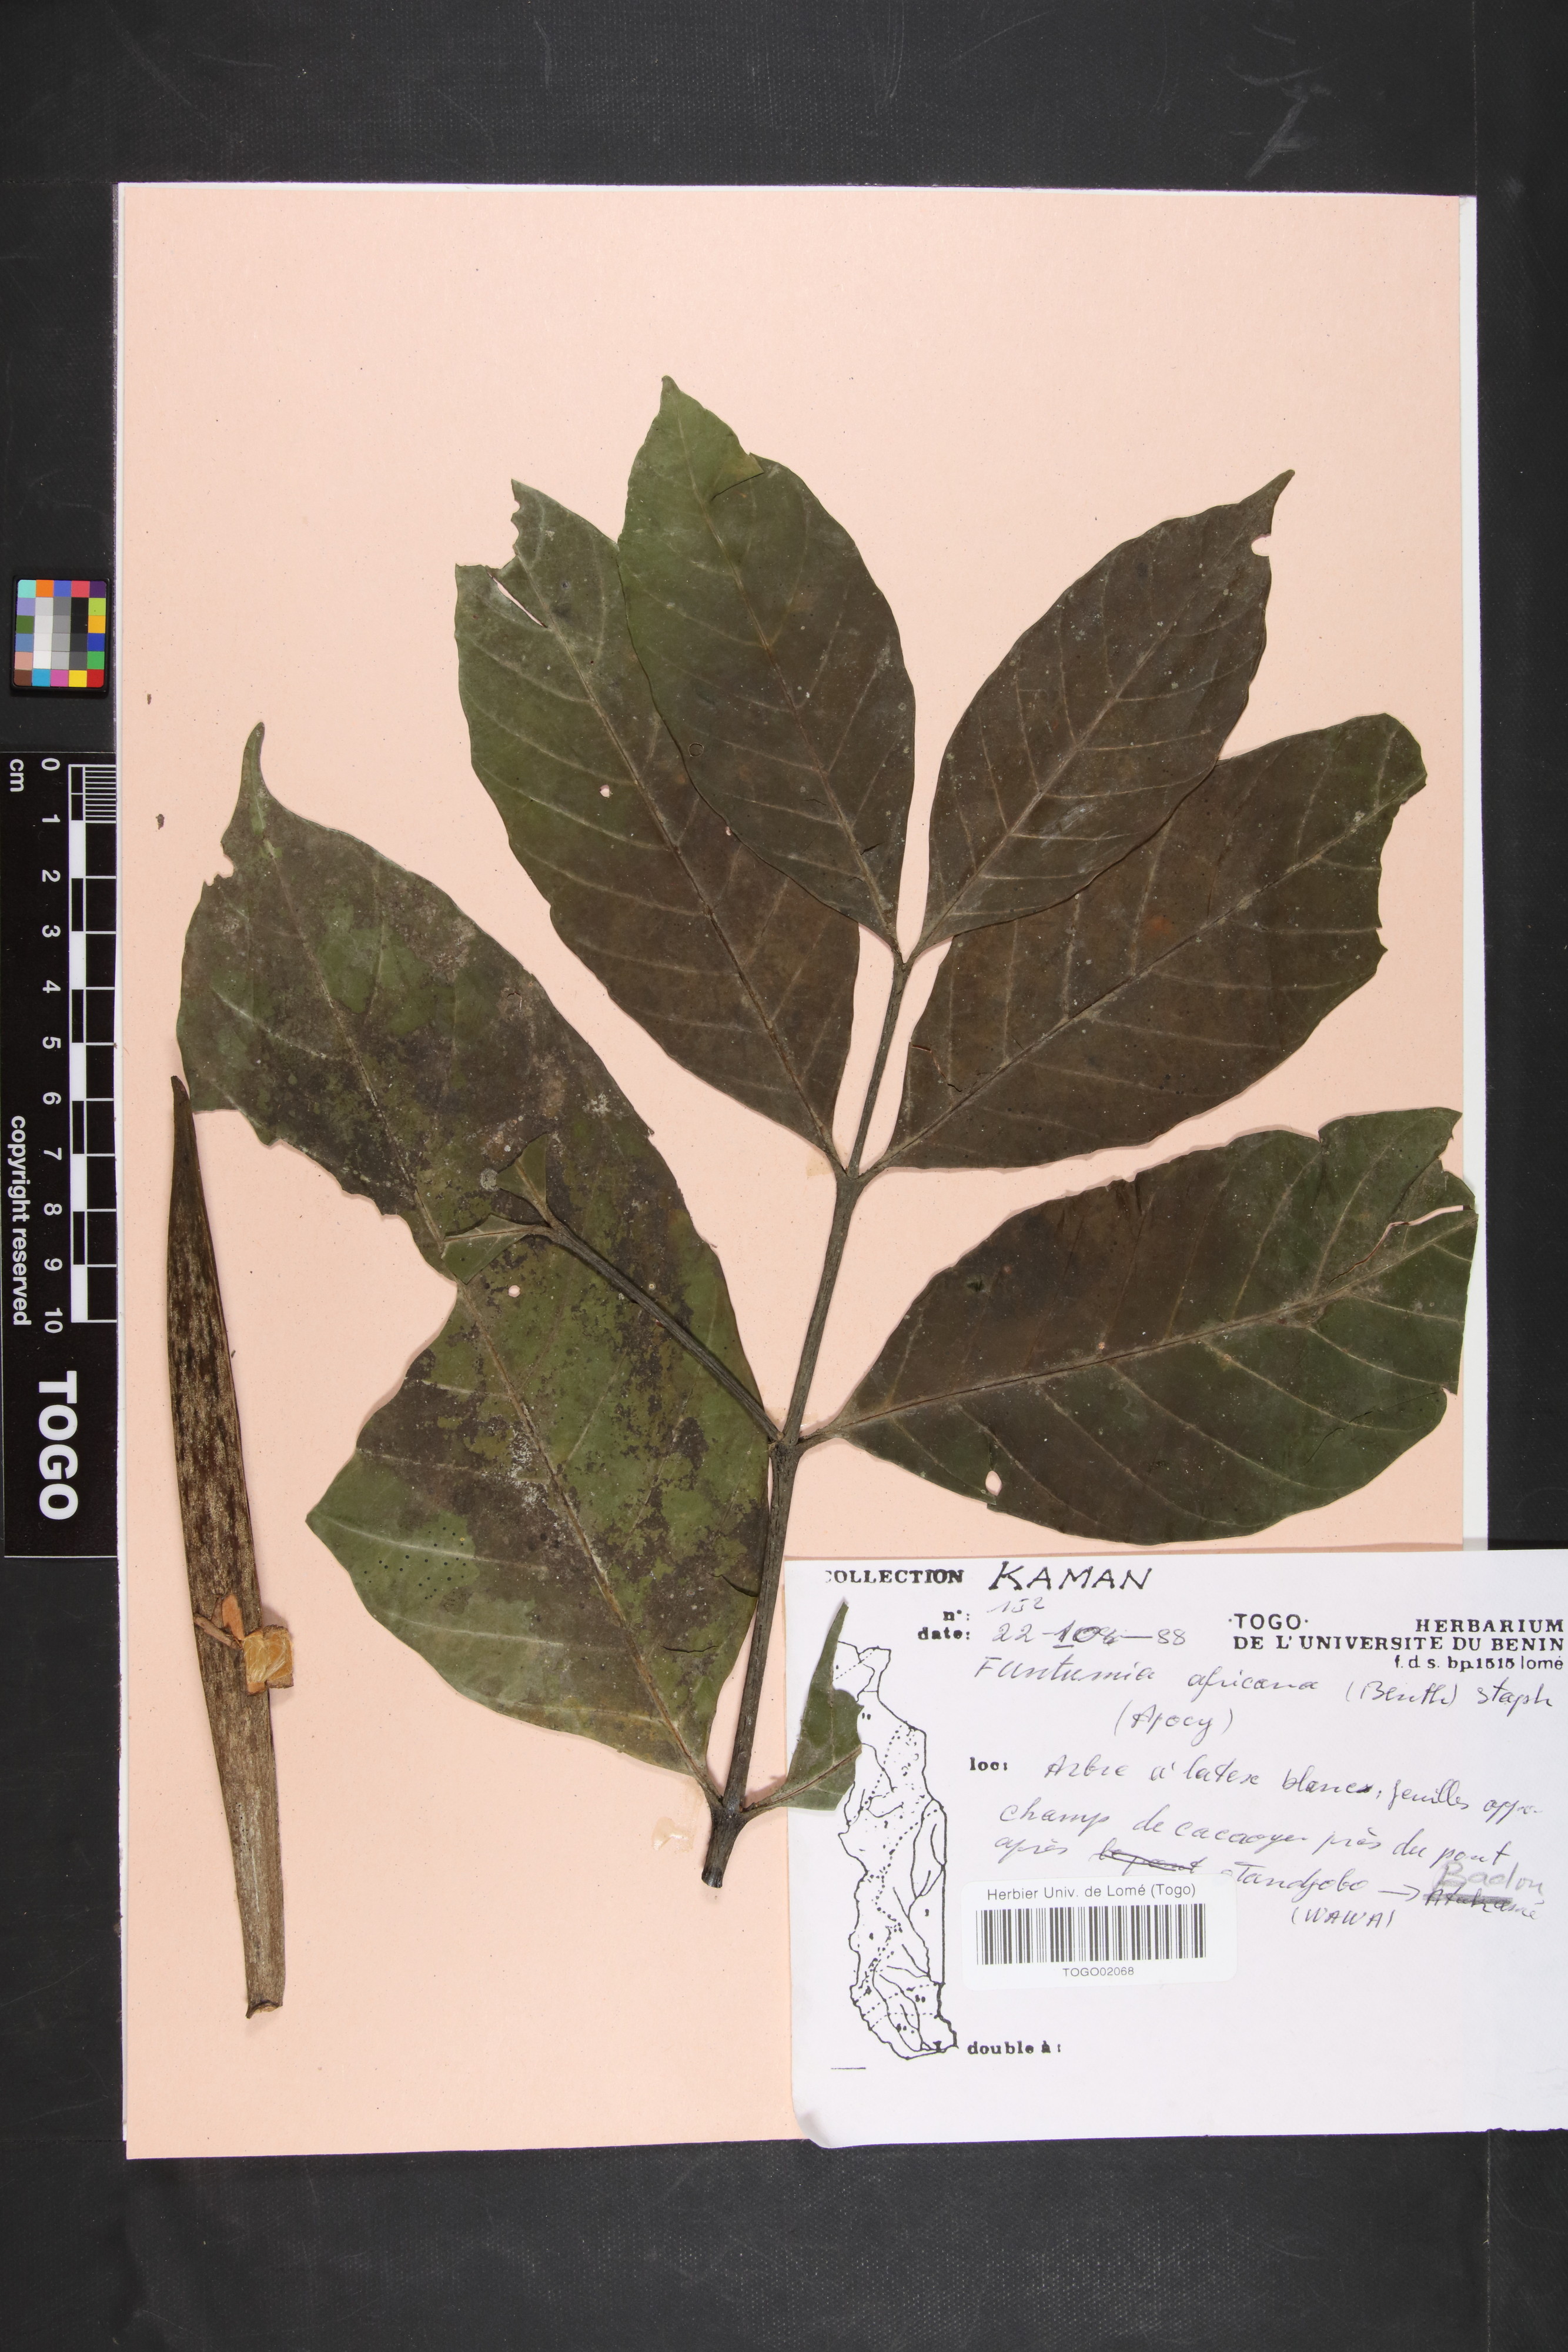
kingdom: Plantae
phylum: Tracheophyta
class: Magnoliopsida
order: Gentianales
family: Apocynaceae
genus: Funtumia
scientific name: Funtumia africana
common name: Lagos-rubber
